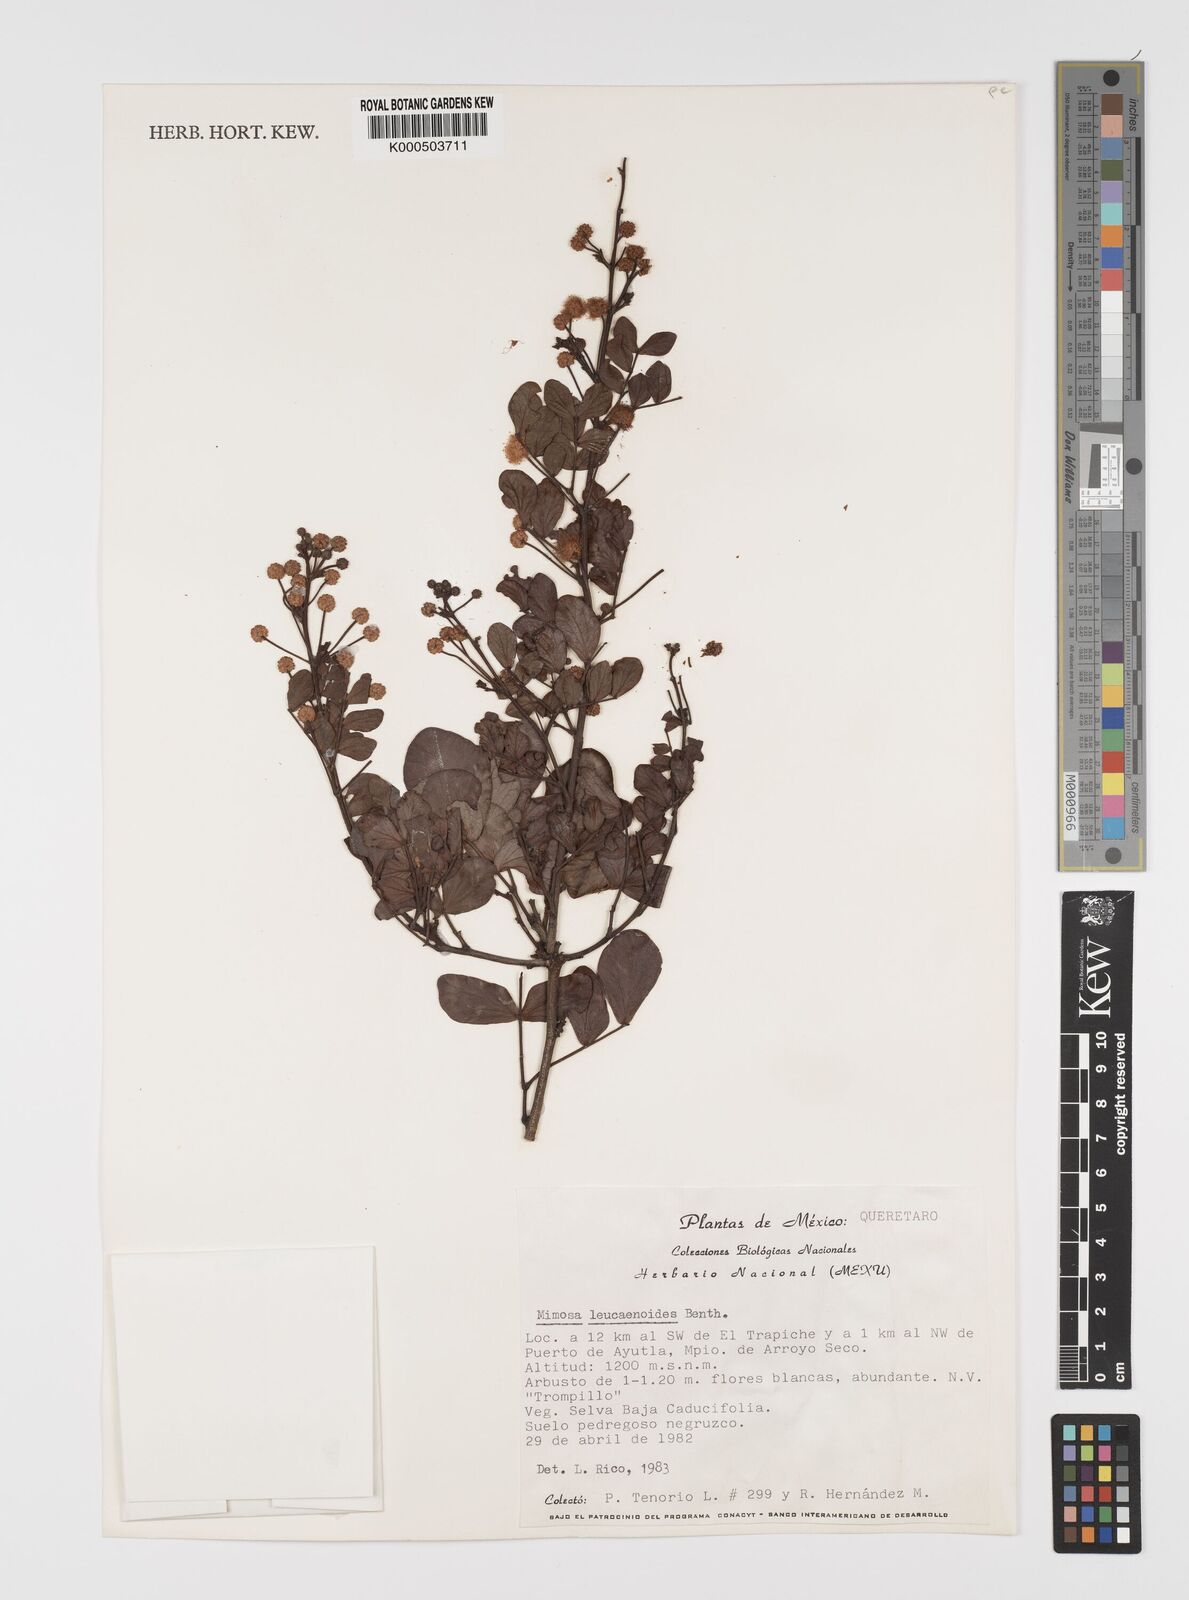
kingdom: Plantae
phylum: Tracheophyta
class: Magnoliopsida
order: Fabales
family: Fabaceae
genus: Mimosa
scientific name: Mimosa leucaenoides
